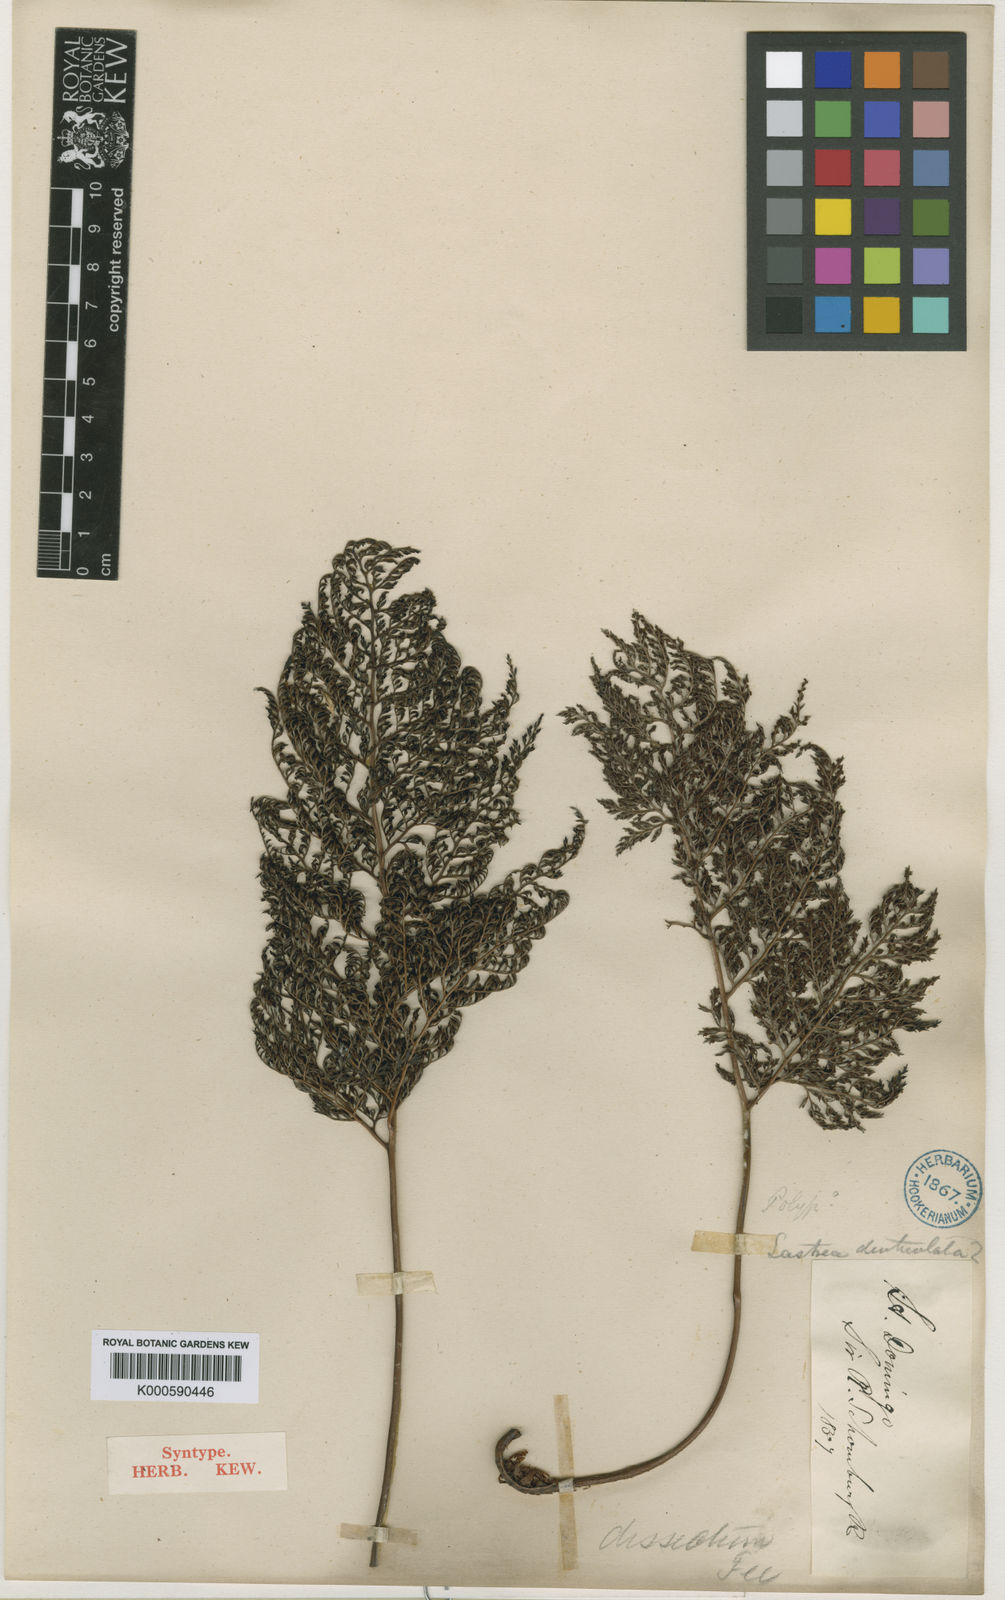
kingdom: Plantae
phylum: Tracheophyta
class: Polypodiopsida
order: Polypodiales
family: Dryopteridaceae
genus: Arachniodes
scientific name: Arachniodes
